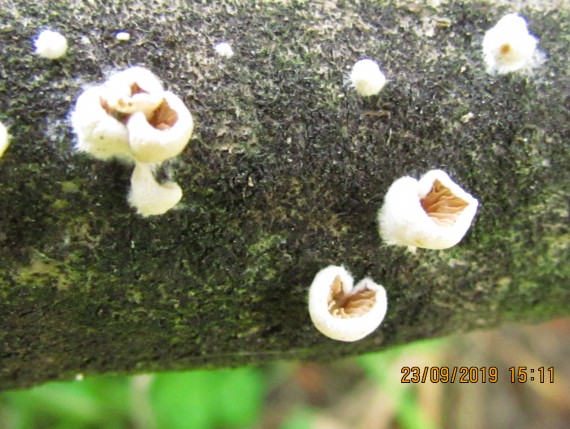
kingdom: Fungi
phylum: Basidiomycota
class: Agaricomycetes
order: Agaricales
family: Crepidotaceae
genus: Crepidotus
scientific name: Crepidotus
